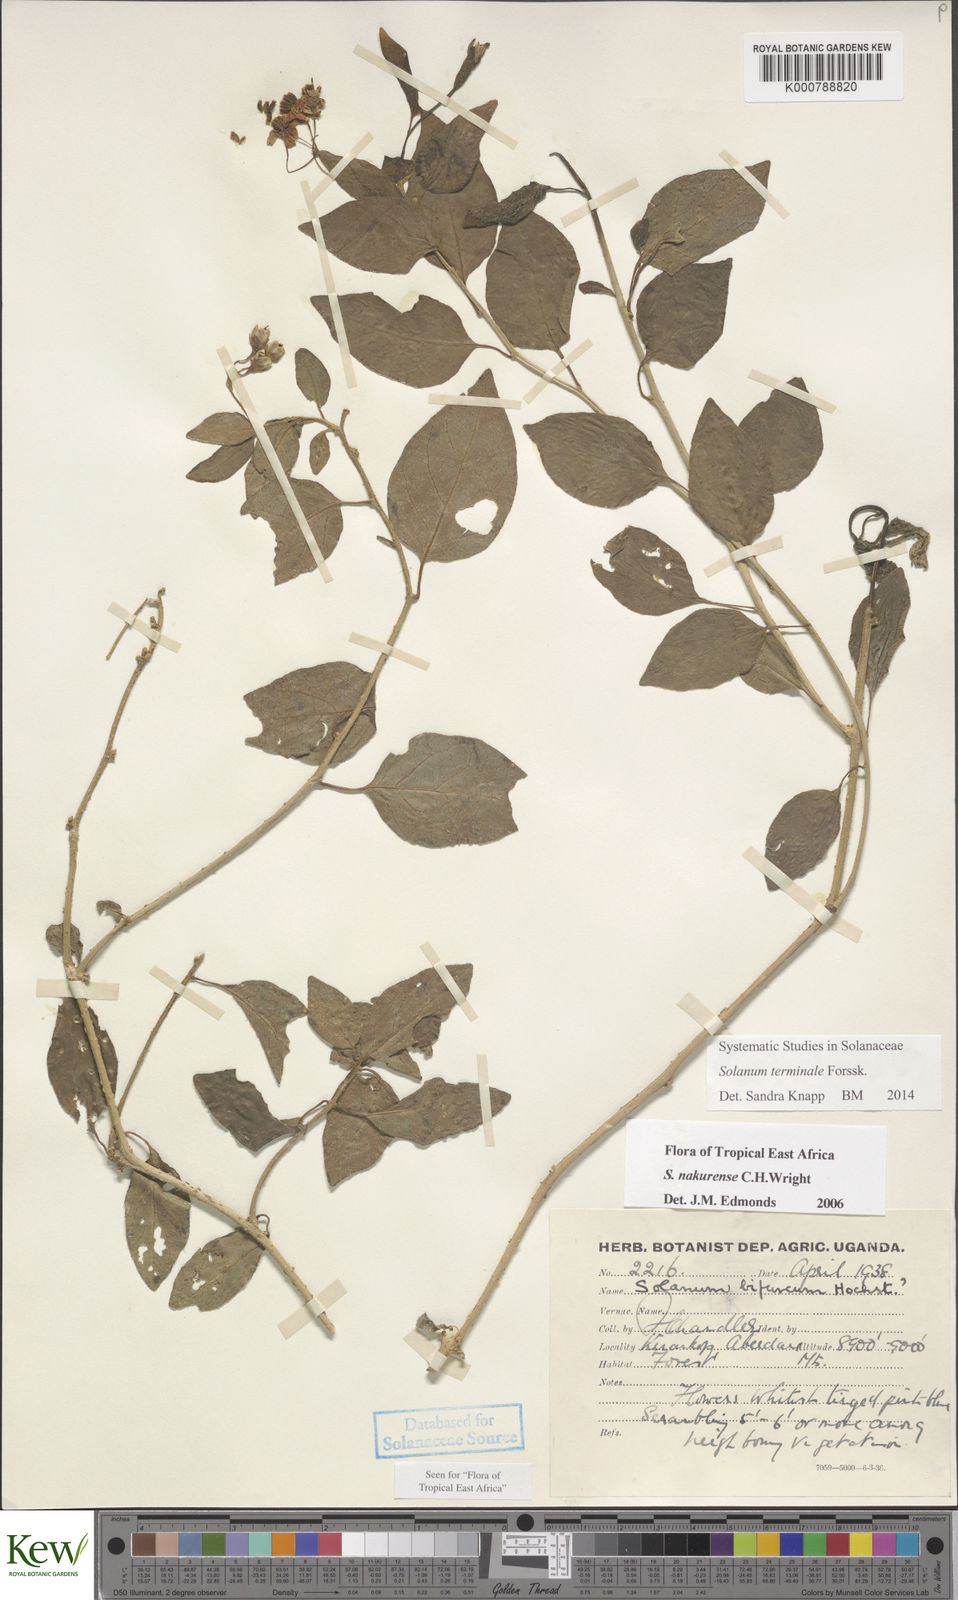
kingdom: Plantae
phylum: Tracheophyta
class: Magnoliopsida
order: Solanales
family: Solanaceae
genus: Solanum
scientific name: Solanum terminale
